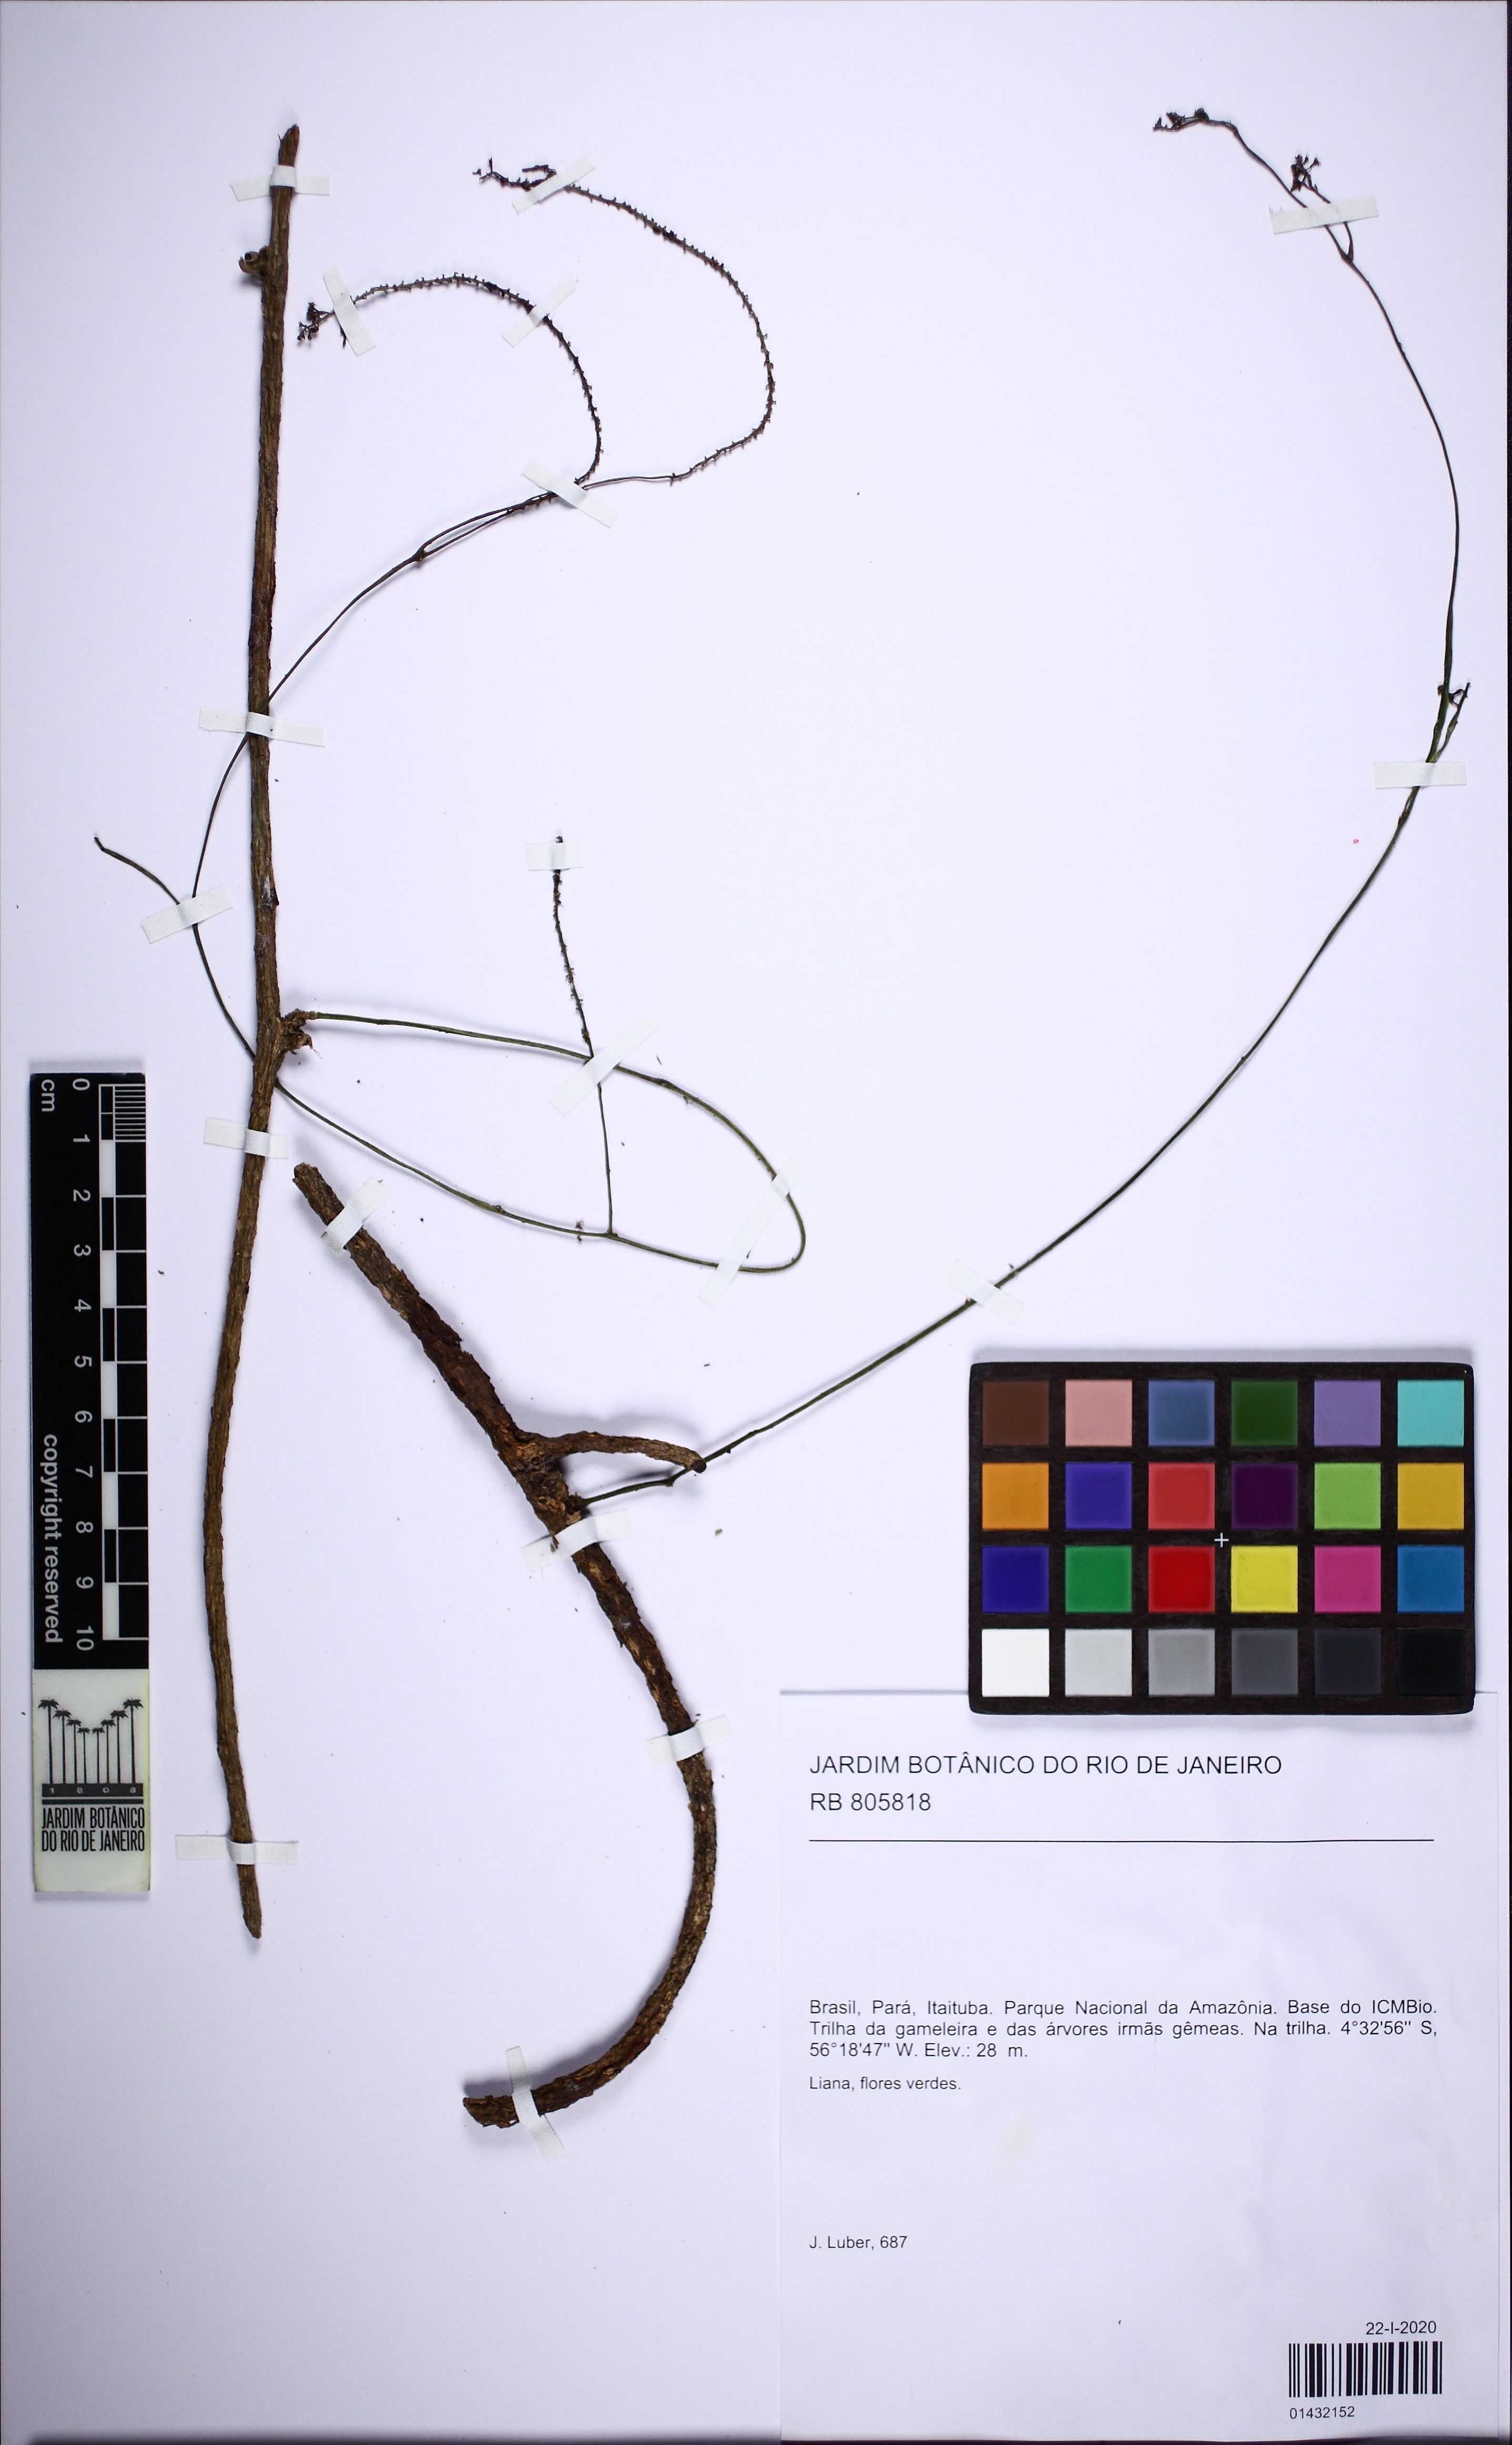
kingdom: Plantae
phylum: Tracheophyta
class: Magnoliopsida
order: Cucurbitales
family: Cucurbitaceae
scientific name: Cucurbitaceae
